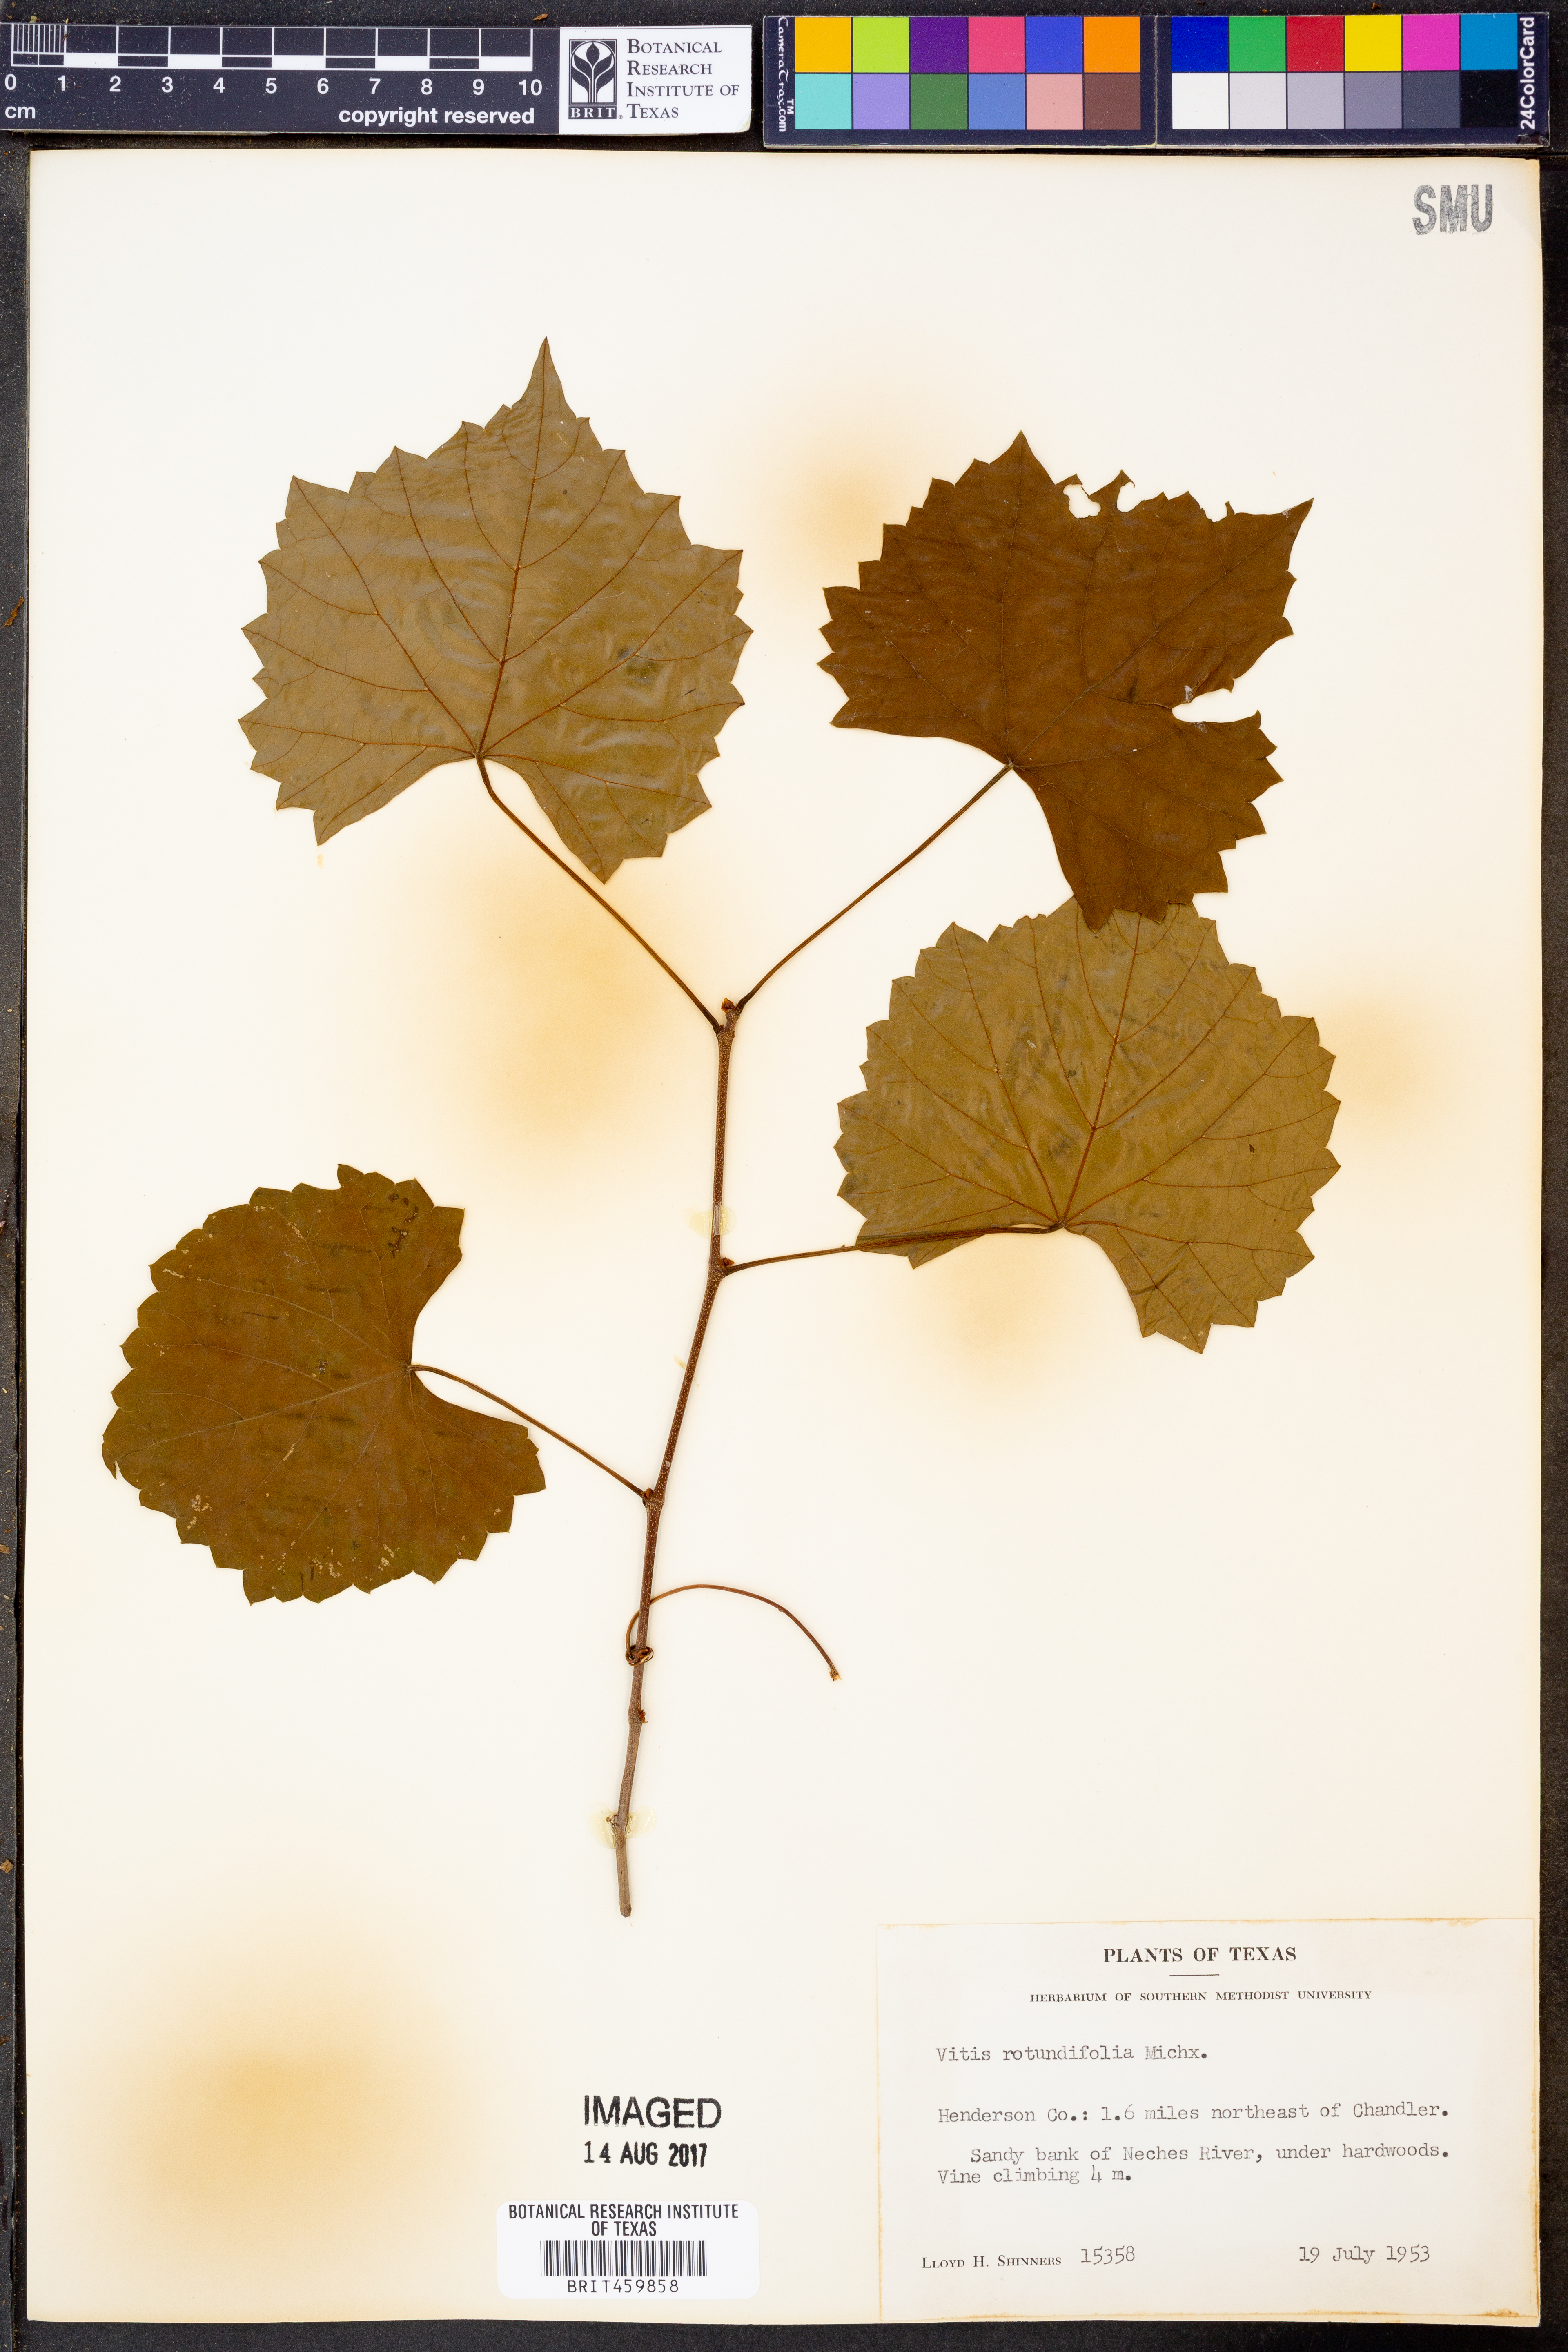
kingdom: Plantae
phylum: Tracheophyta
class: Magnoliopsida
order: Vitales
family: Vitaceae
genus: Vitis
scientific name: Vitis rotundifolia
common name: Muscadine grape
